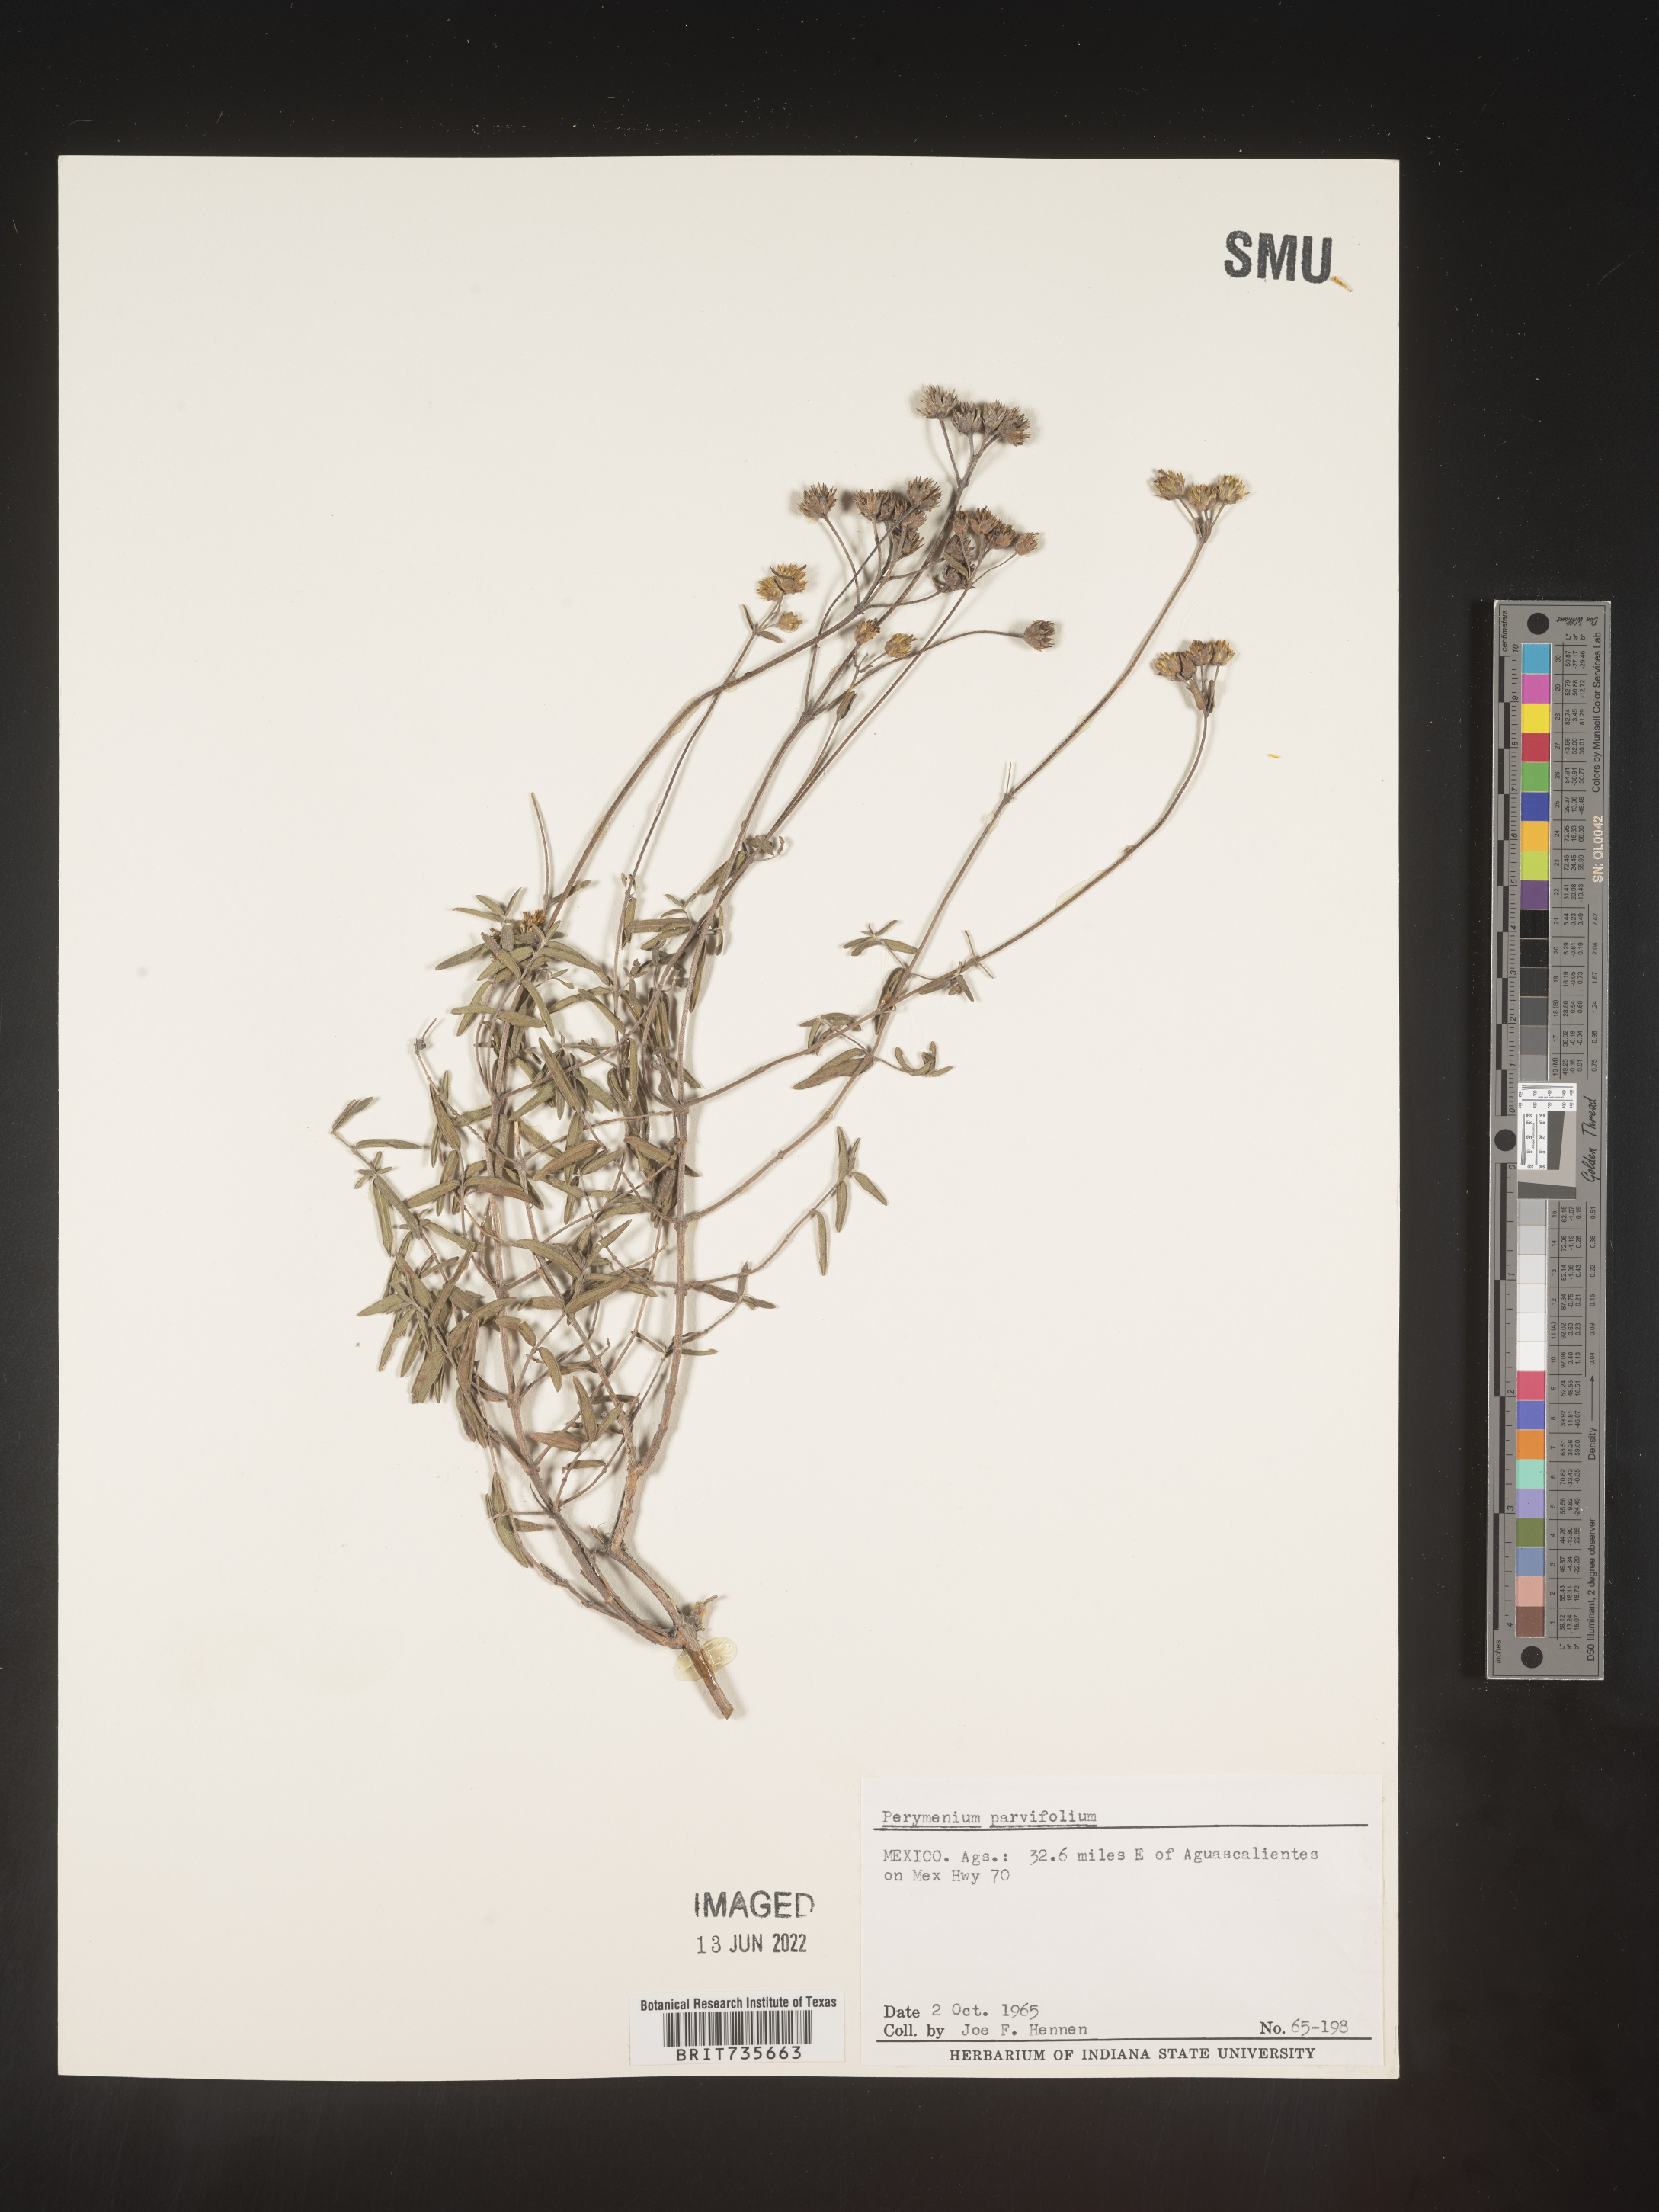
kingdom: Plantae
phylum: Tracheophyta
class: Magnoliopsida
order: Asterales
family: Asteraceae
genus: Perymenium
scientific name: Perymenium
